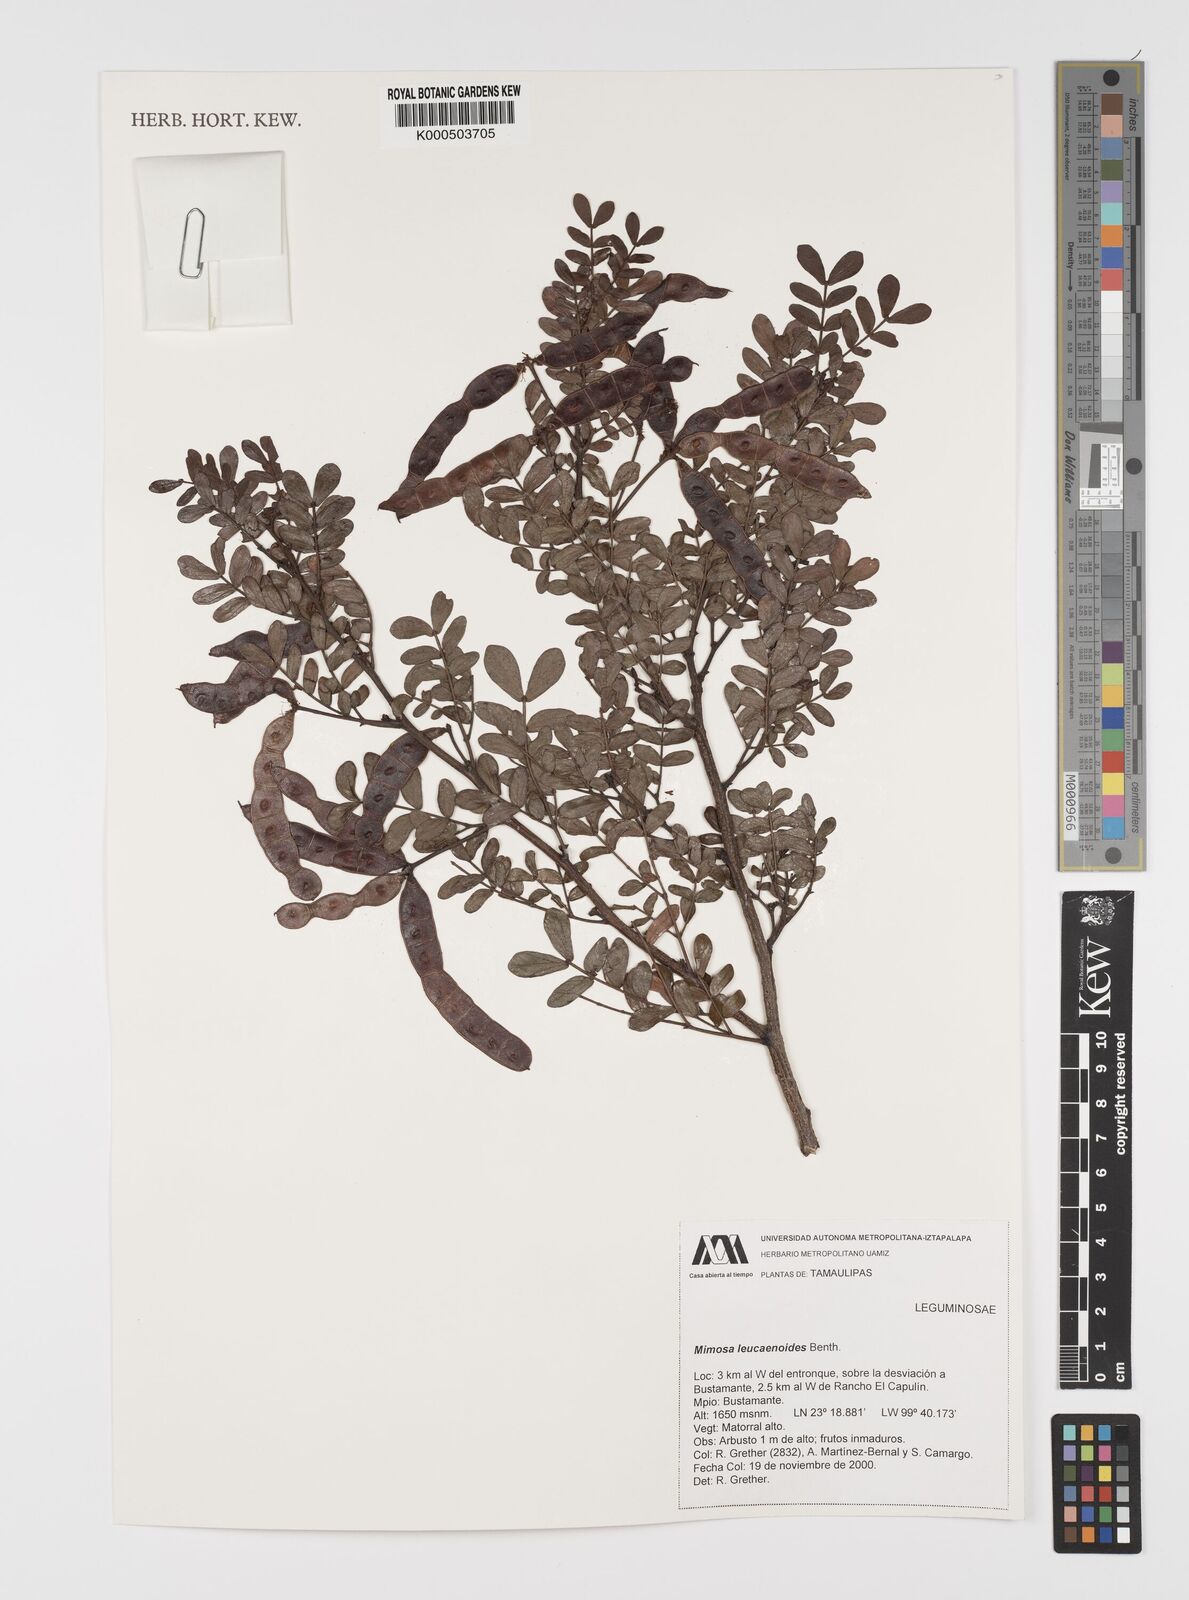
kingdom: Plantae
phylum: Tracheophyta
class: Magnoliopsida
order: Fabales
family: Fabaceae
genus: Mimosa
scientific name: Mimosa leucaenoides
